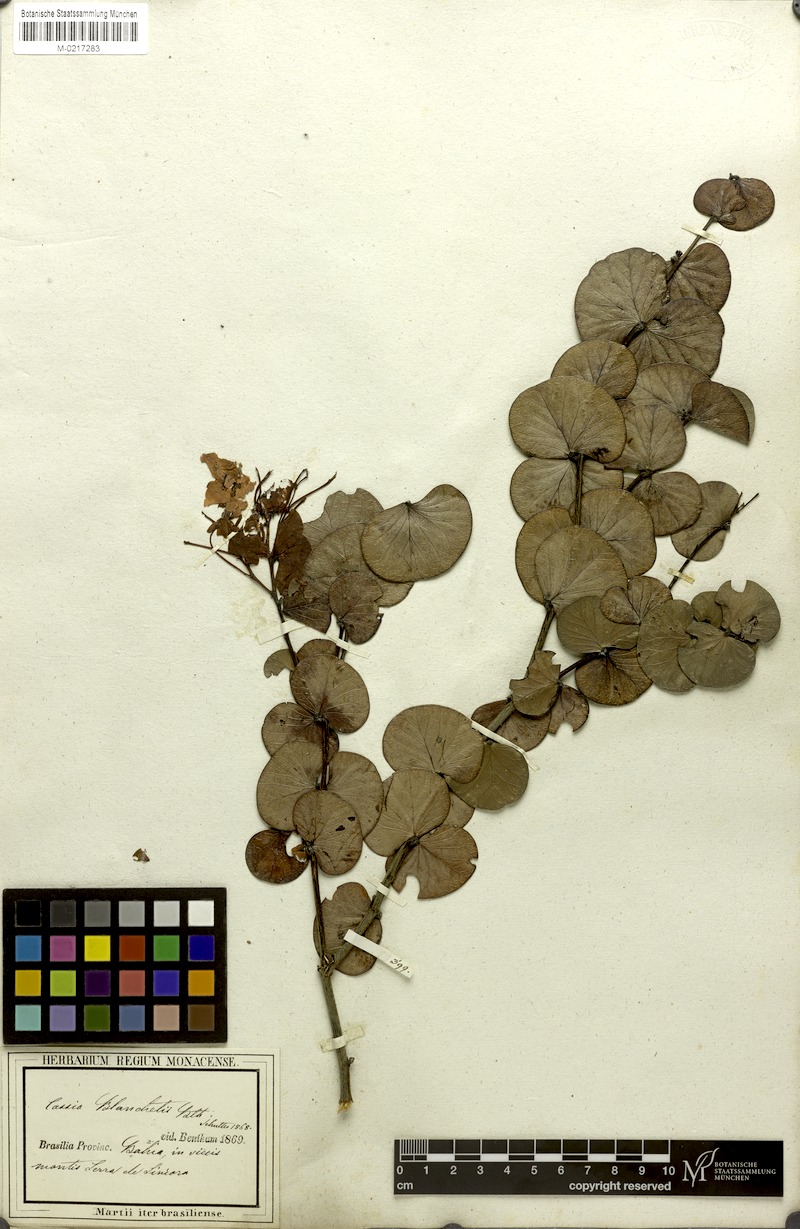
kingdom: Plantae
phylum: Tracheophyta
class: Magnoliopsida
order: Fabales
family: Fabaceae
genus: Chamaecrista
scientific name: Chamaecrista blanchetii
